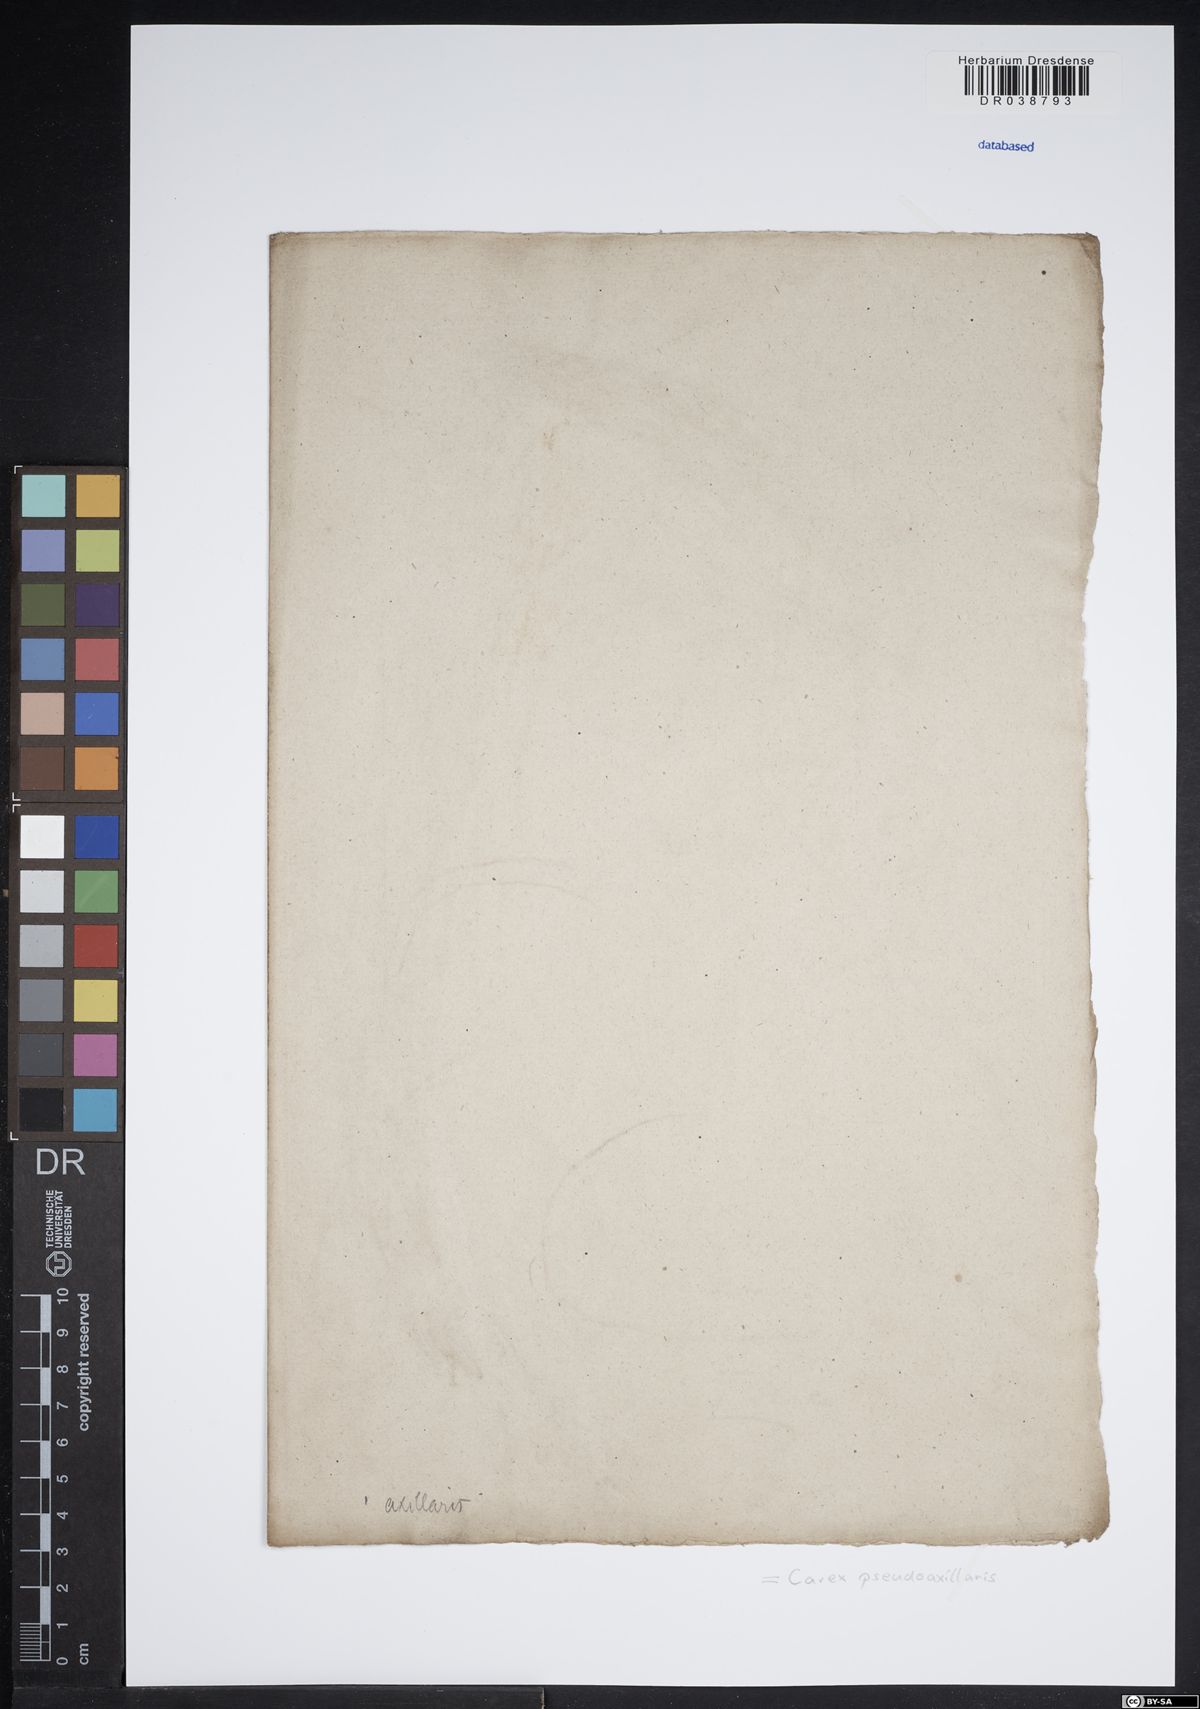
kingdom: Plantae
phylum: Tracheophyta
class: Liliopsida
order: Poales
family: Cyperaceae
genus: Carex
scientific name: Carex pseudoaxillaris
